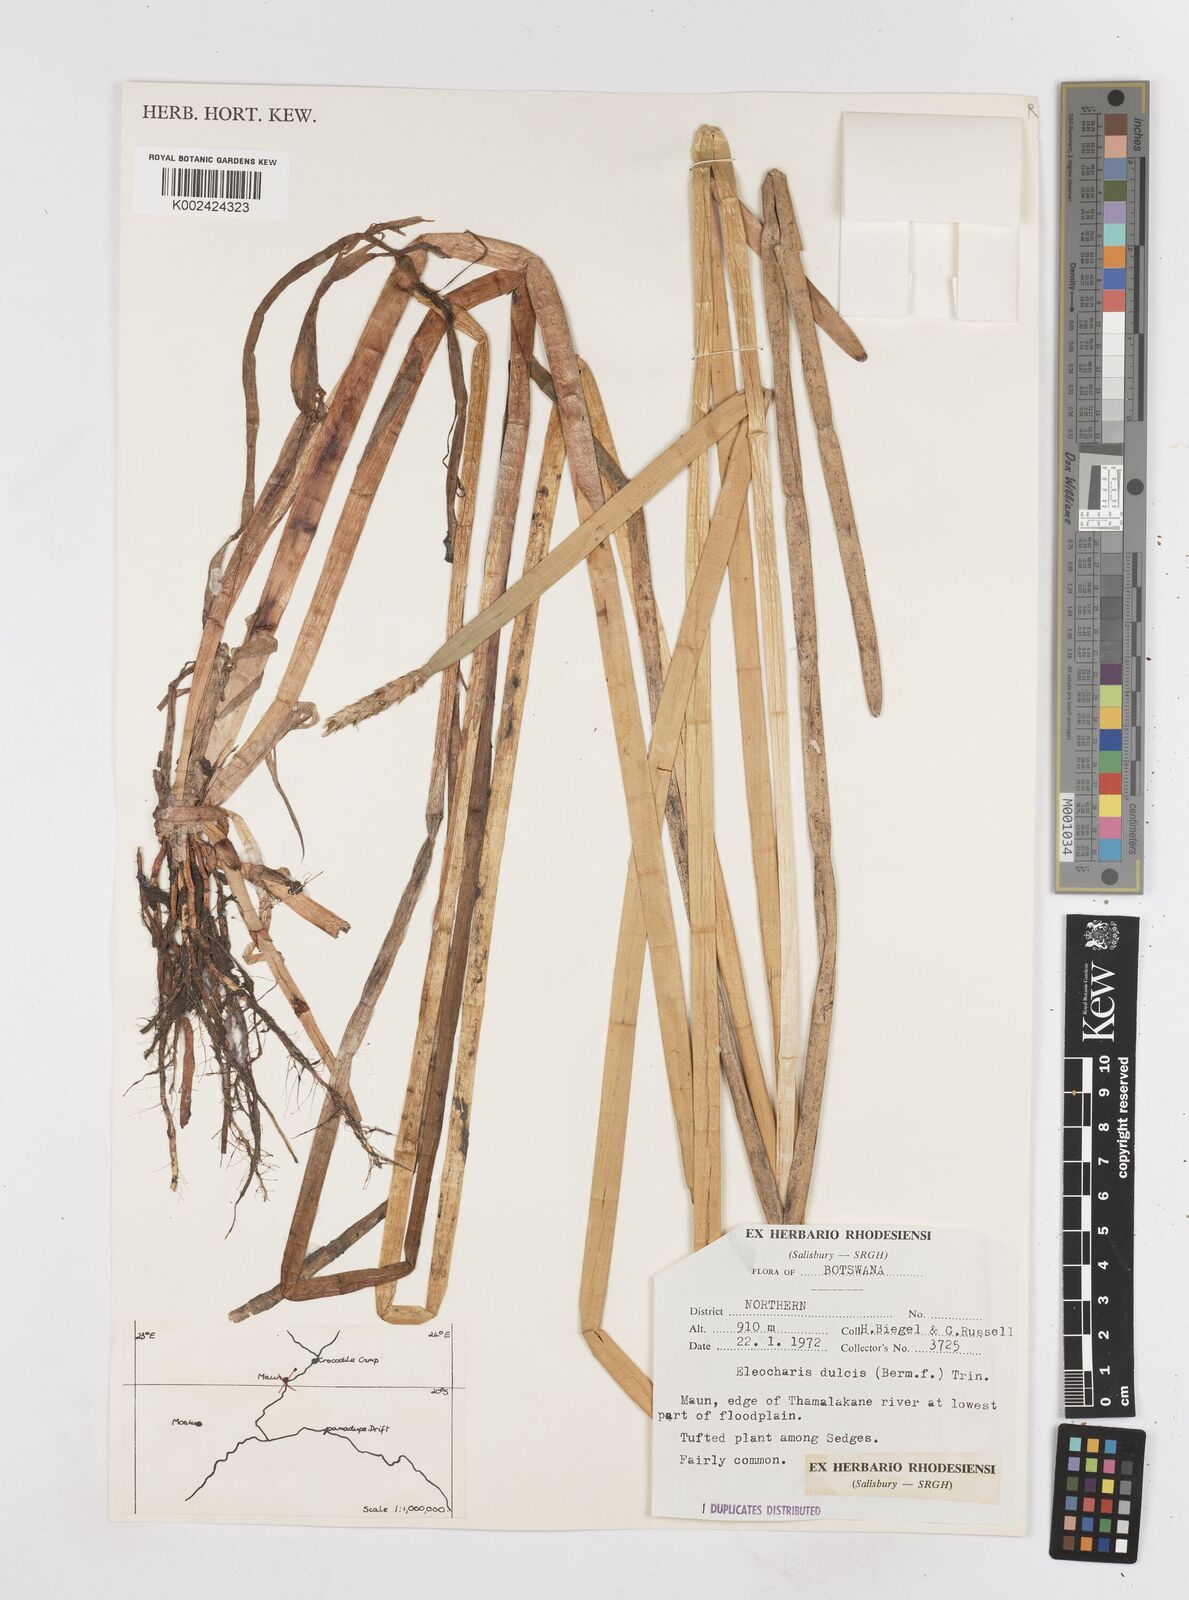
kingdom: Plantae
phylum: Tracheophyta
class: Liliopsida
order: Poales
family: Cyperaceae
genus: Eleocharis
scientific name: Eleocharis dulcis
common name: Chinese water chestnut
